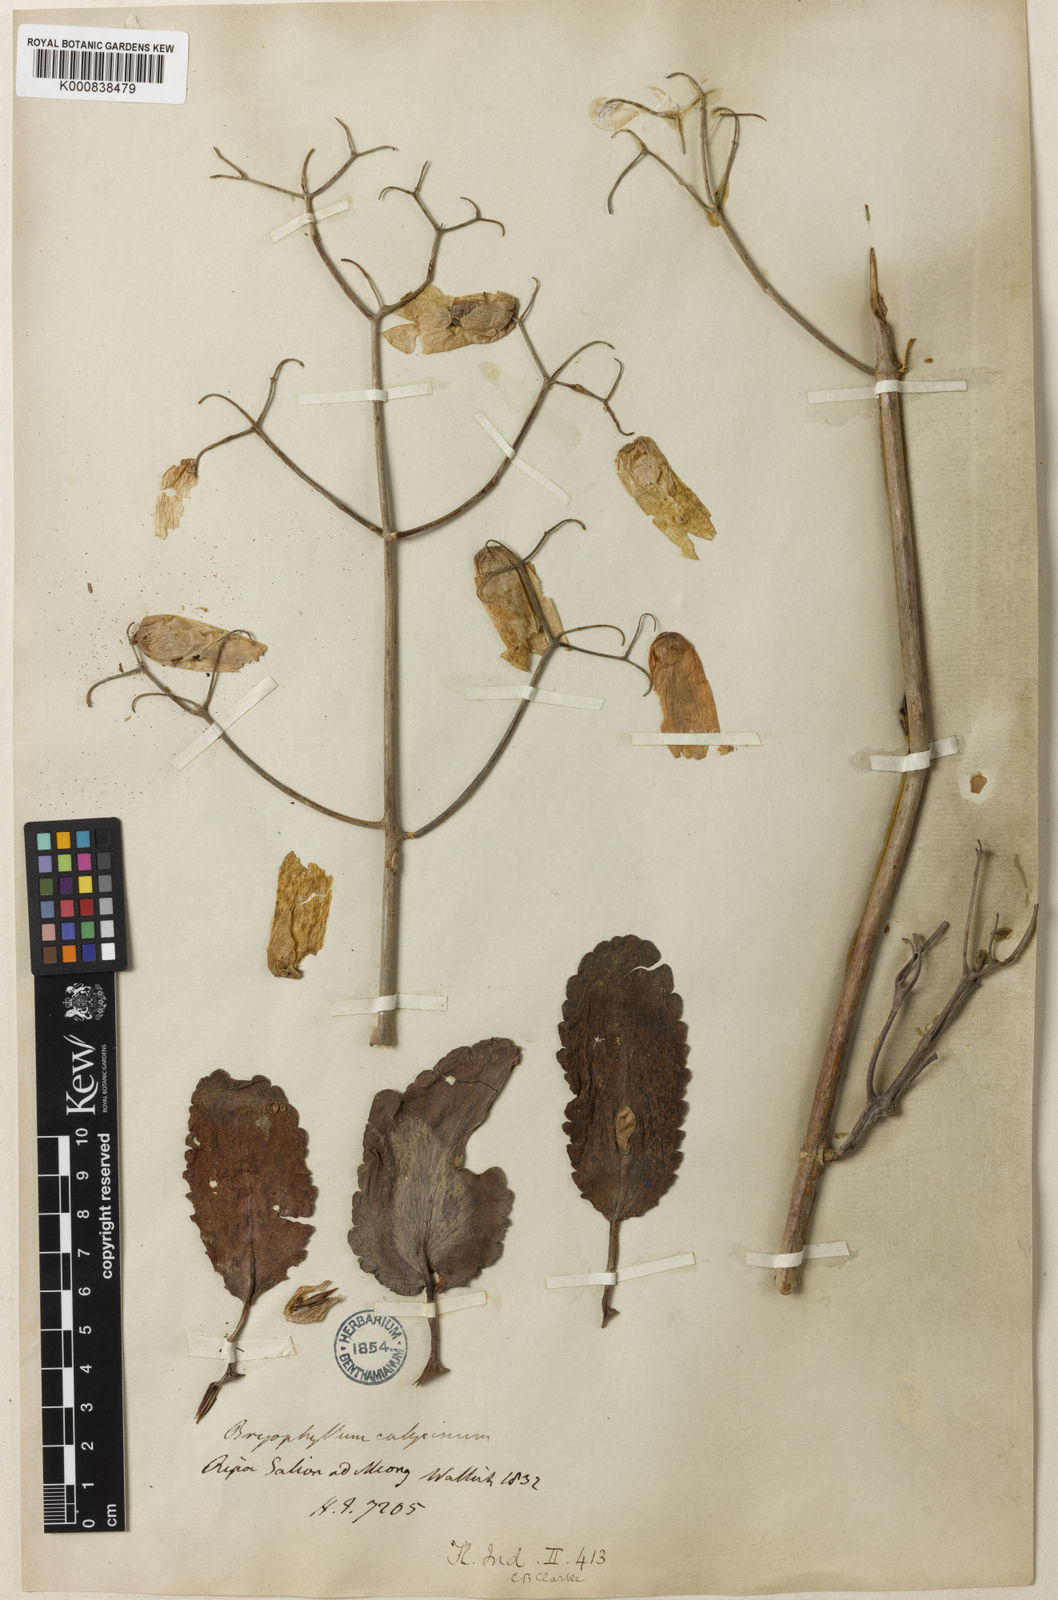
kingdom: Plantae
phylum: Tracheophyta
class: Magnoliopsida
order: Saxifragales
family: Crassulaceae
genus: Kalanchoe
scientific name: Kalanchoe pinnata
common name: Cathedral bells
